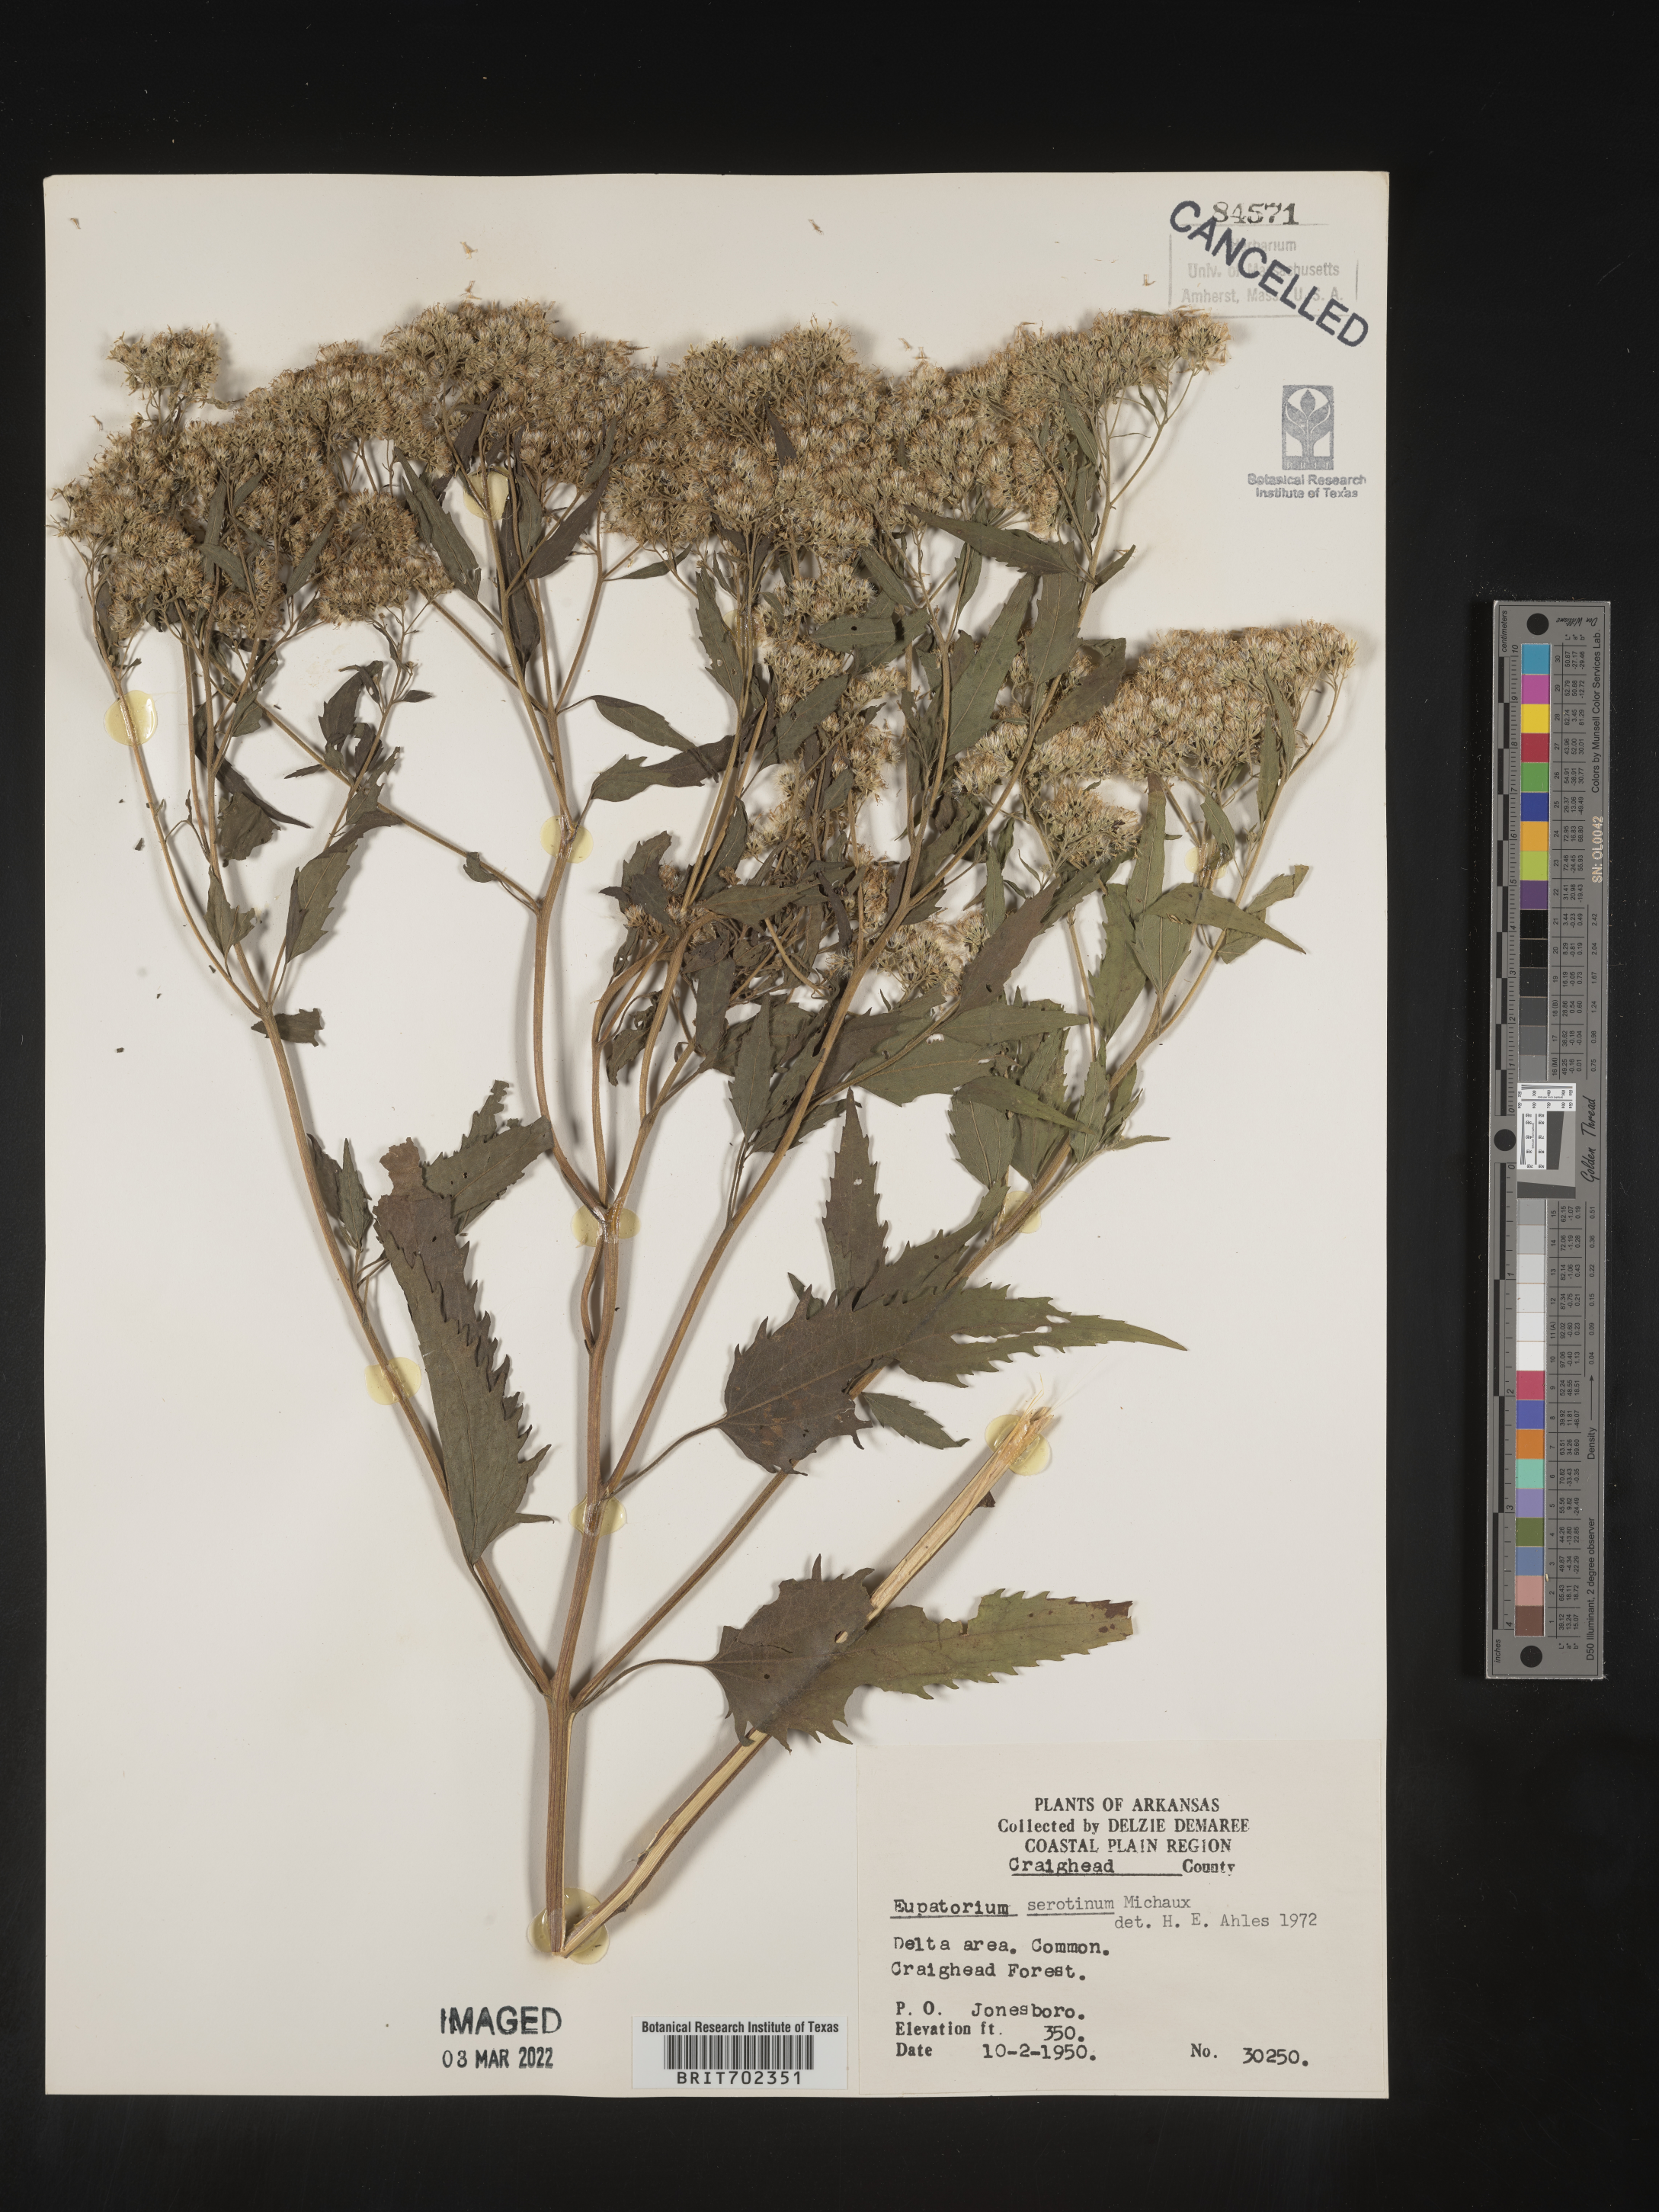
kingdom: Plantae
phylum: Tracheophyta
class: Magnoliopsida
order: Asterales
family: Asteraceae
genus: Eupatorium
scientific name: Eupatorium serotinum
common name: Late boneset
